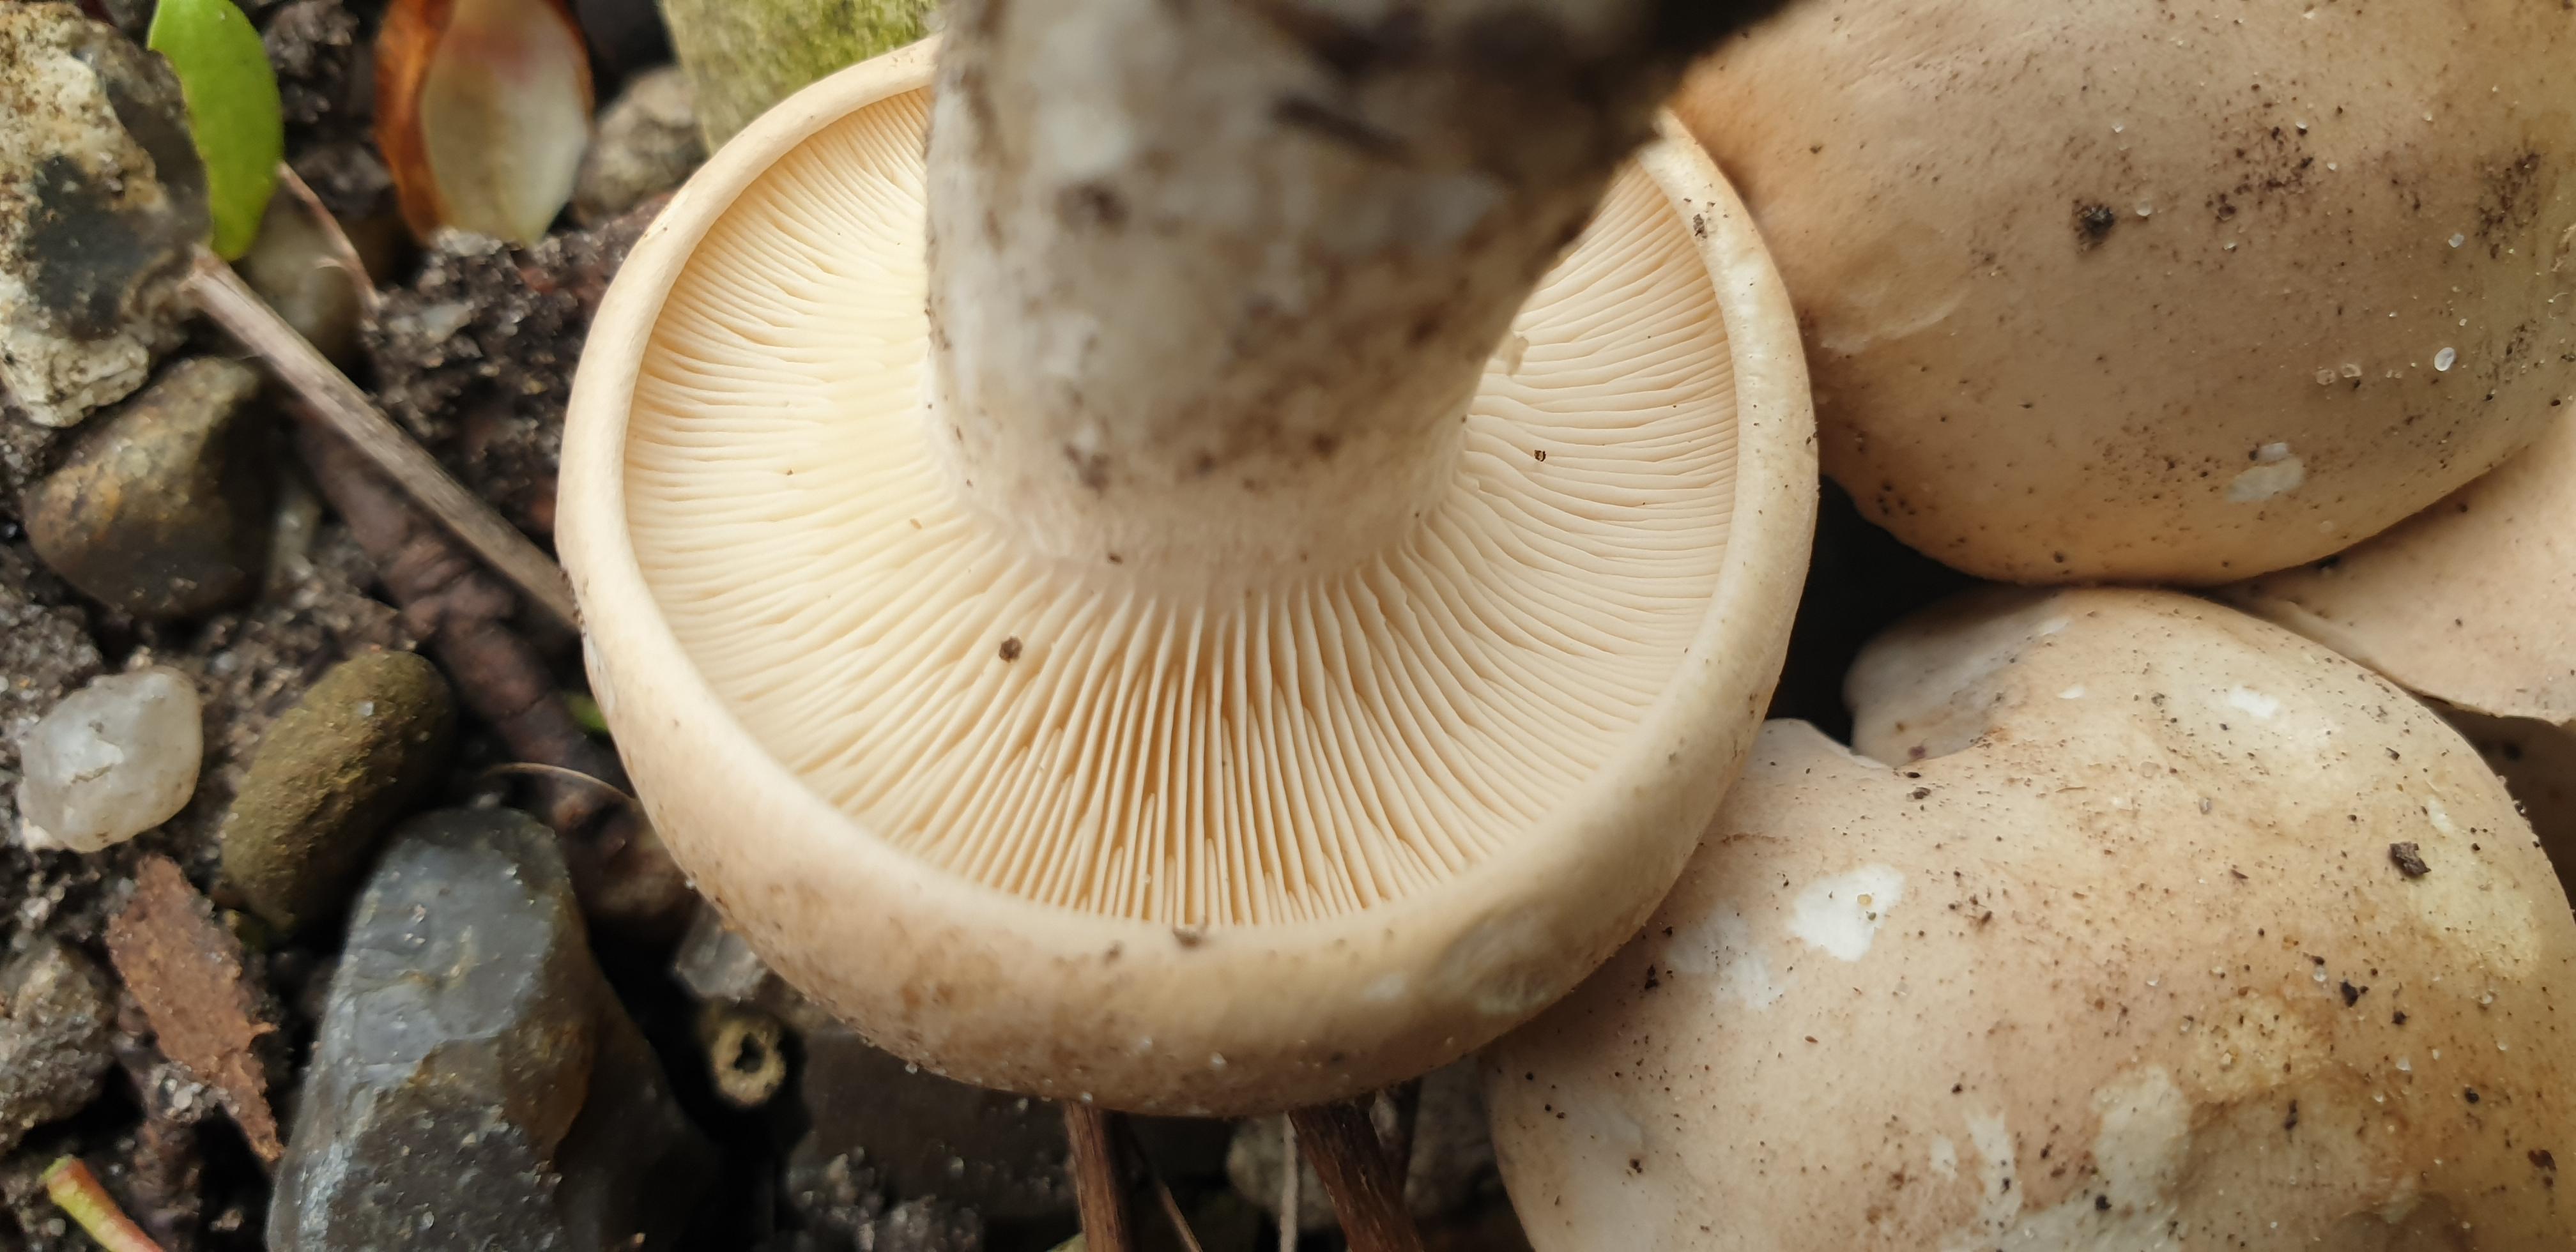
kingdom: Fungi
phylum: Basidiomycota
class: Agaricomycetes
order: Agaricales
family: Lyophyllaceae
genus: Calocybe
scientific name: Calocybe gambosa
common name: vårmusseron
